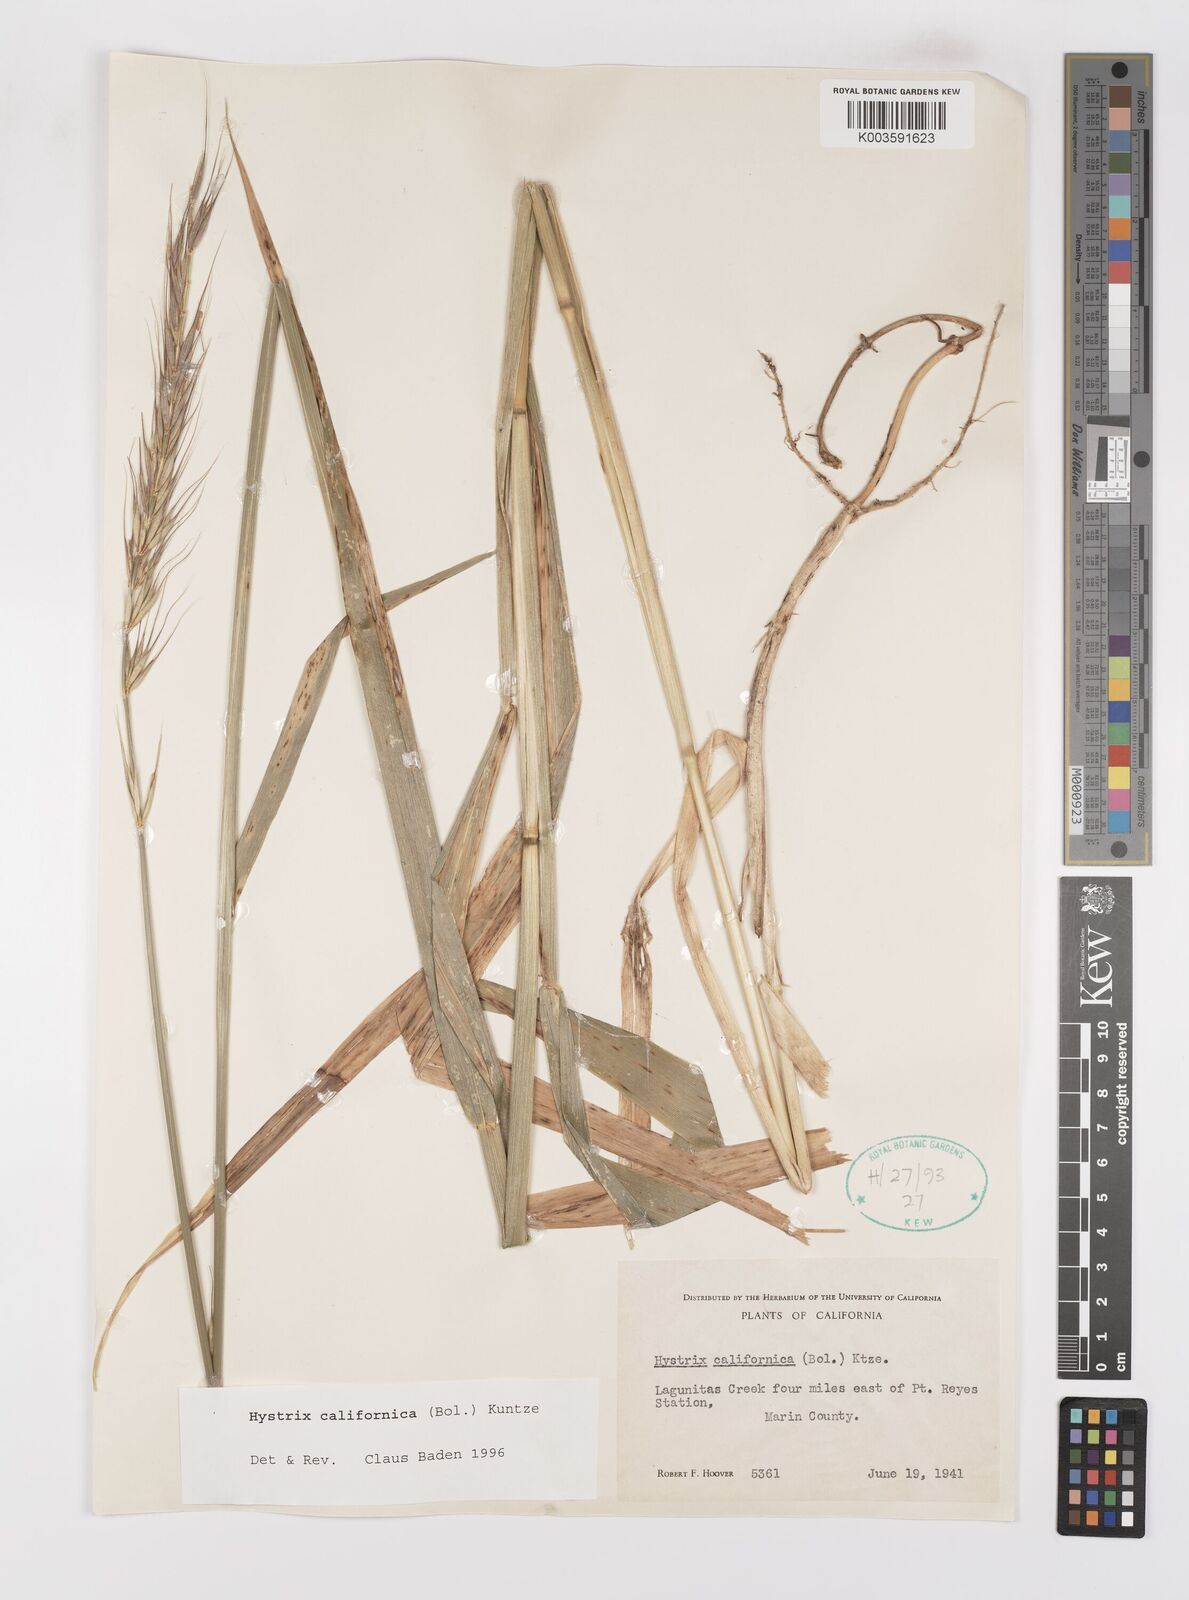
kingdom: Plantae
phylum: Tracheophyta
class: Liliopsida
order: Poales
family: Poaceae
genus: Leymus
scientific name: Leymus
